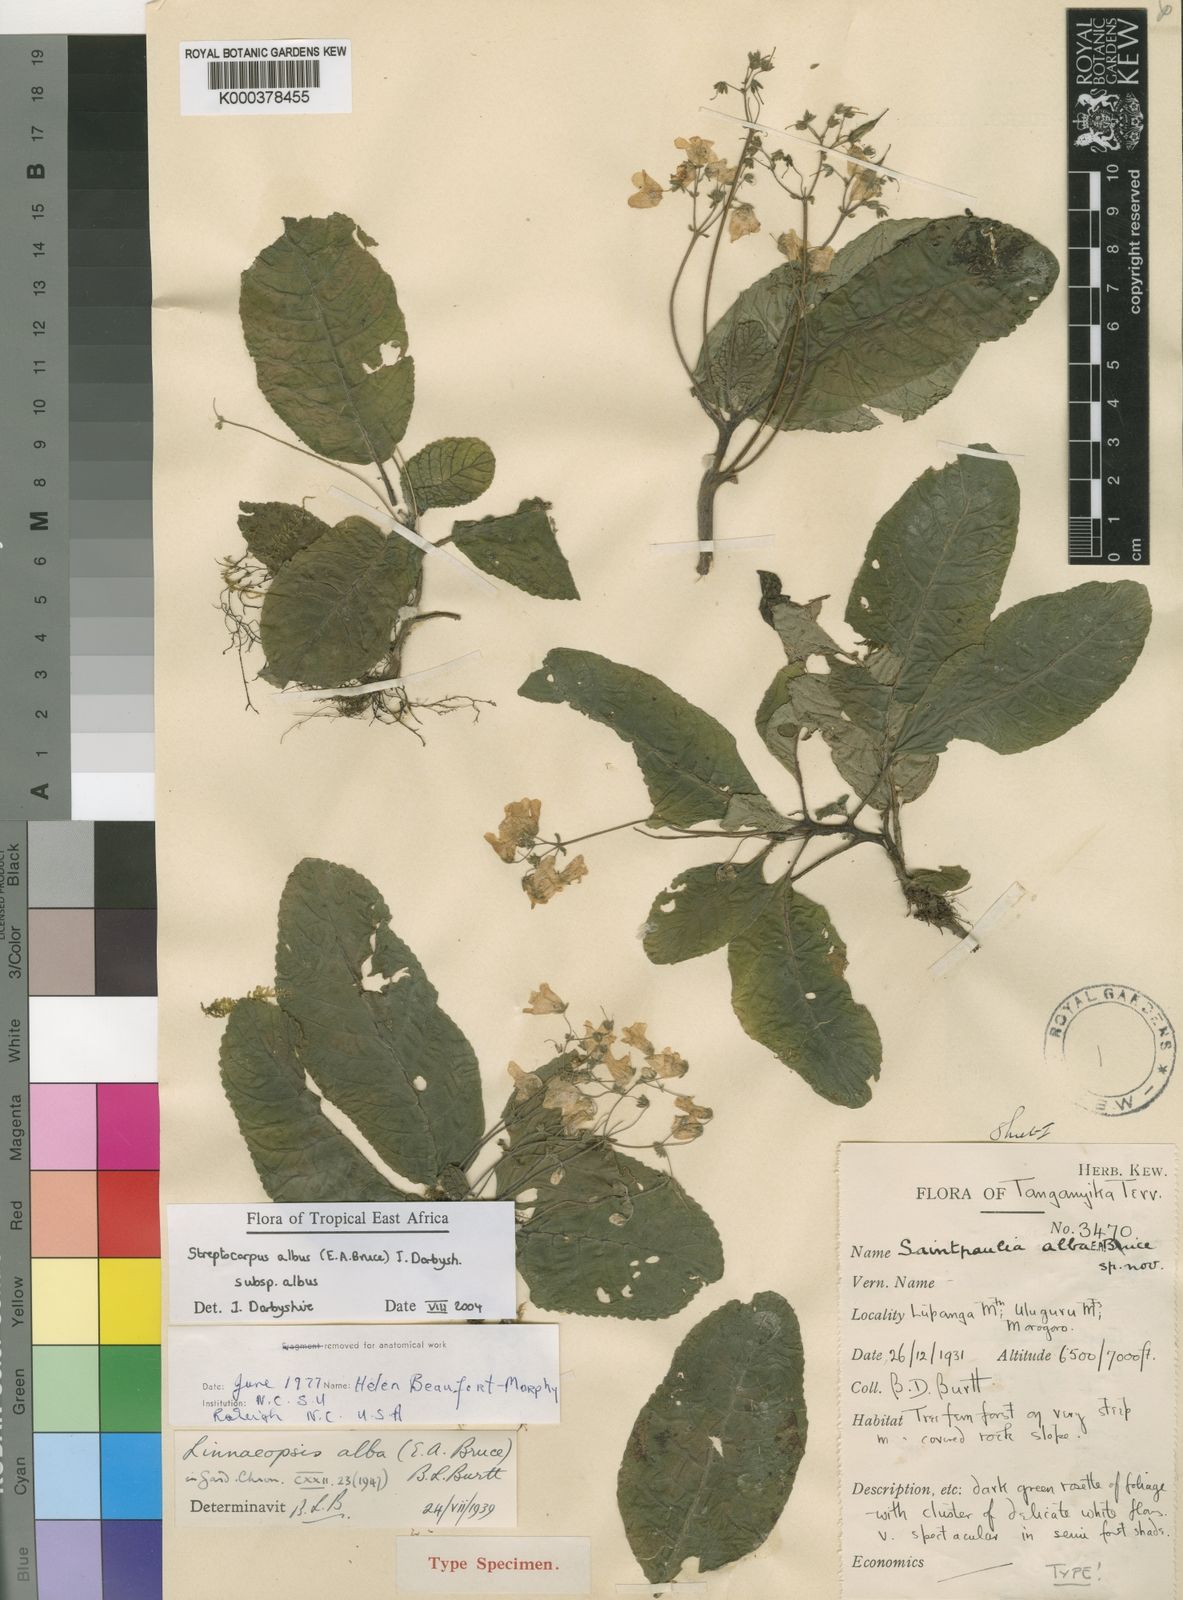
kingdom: Plantae
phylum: Tracheophyta
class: Magnoliopsida
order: Lamiales
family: Gesneriaceae
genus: Streptocarpus
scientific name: Streptocarpus albus
